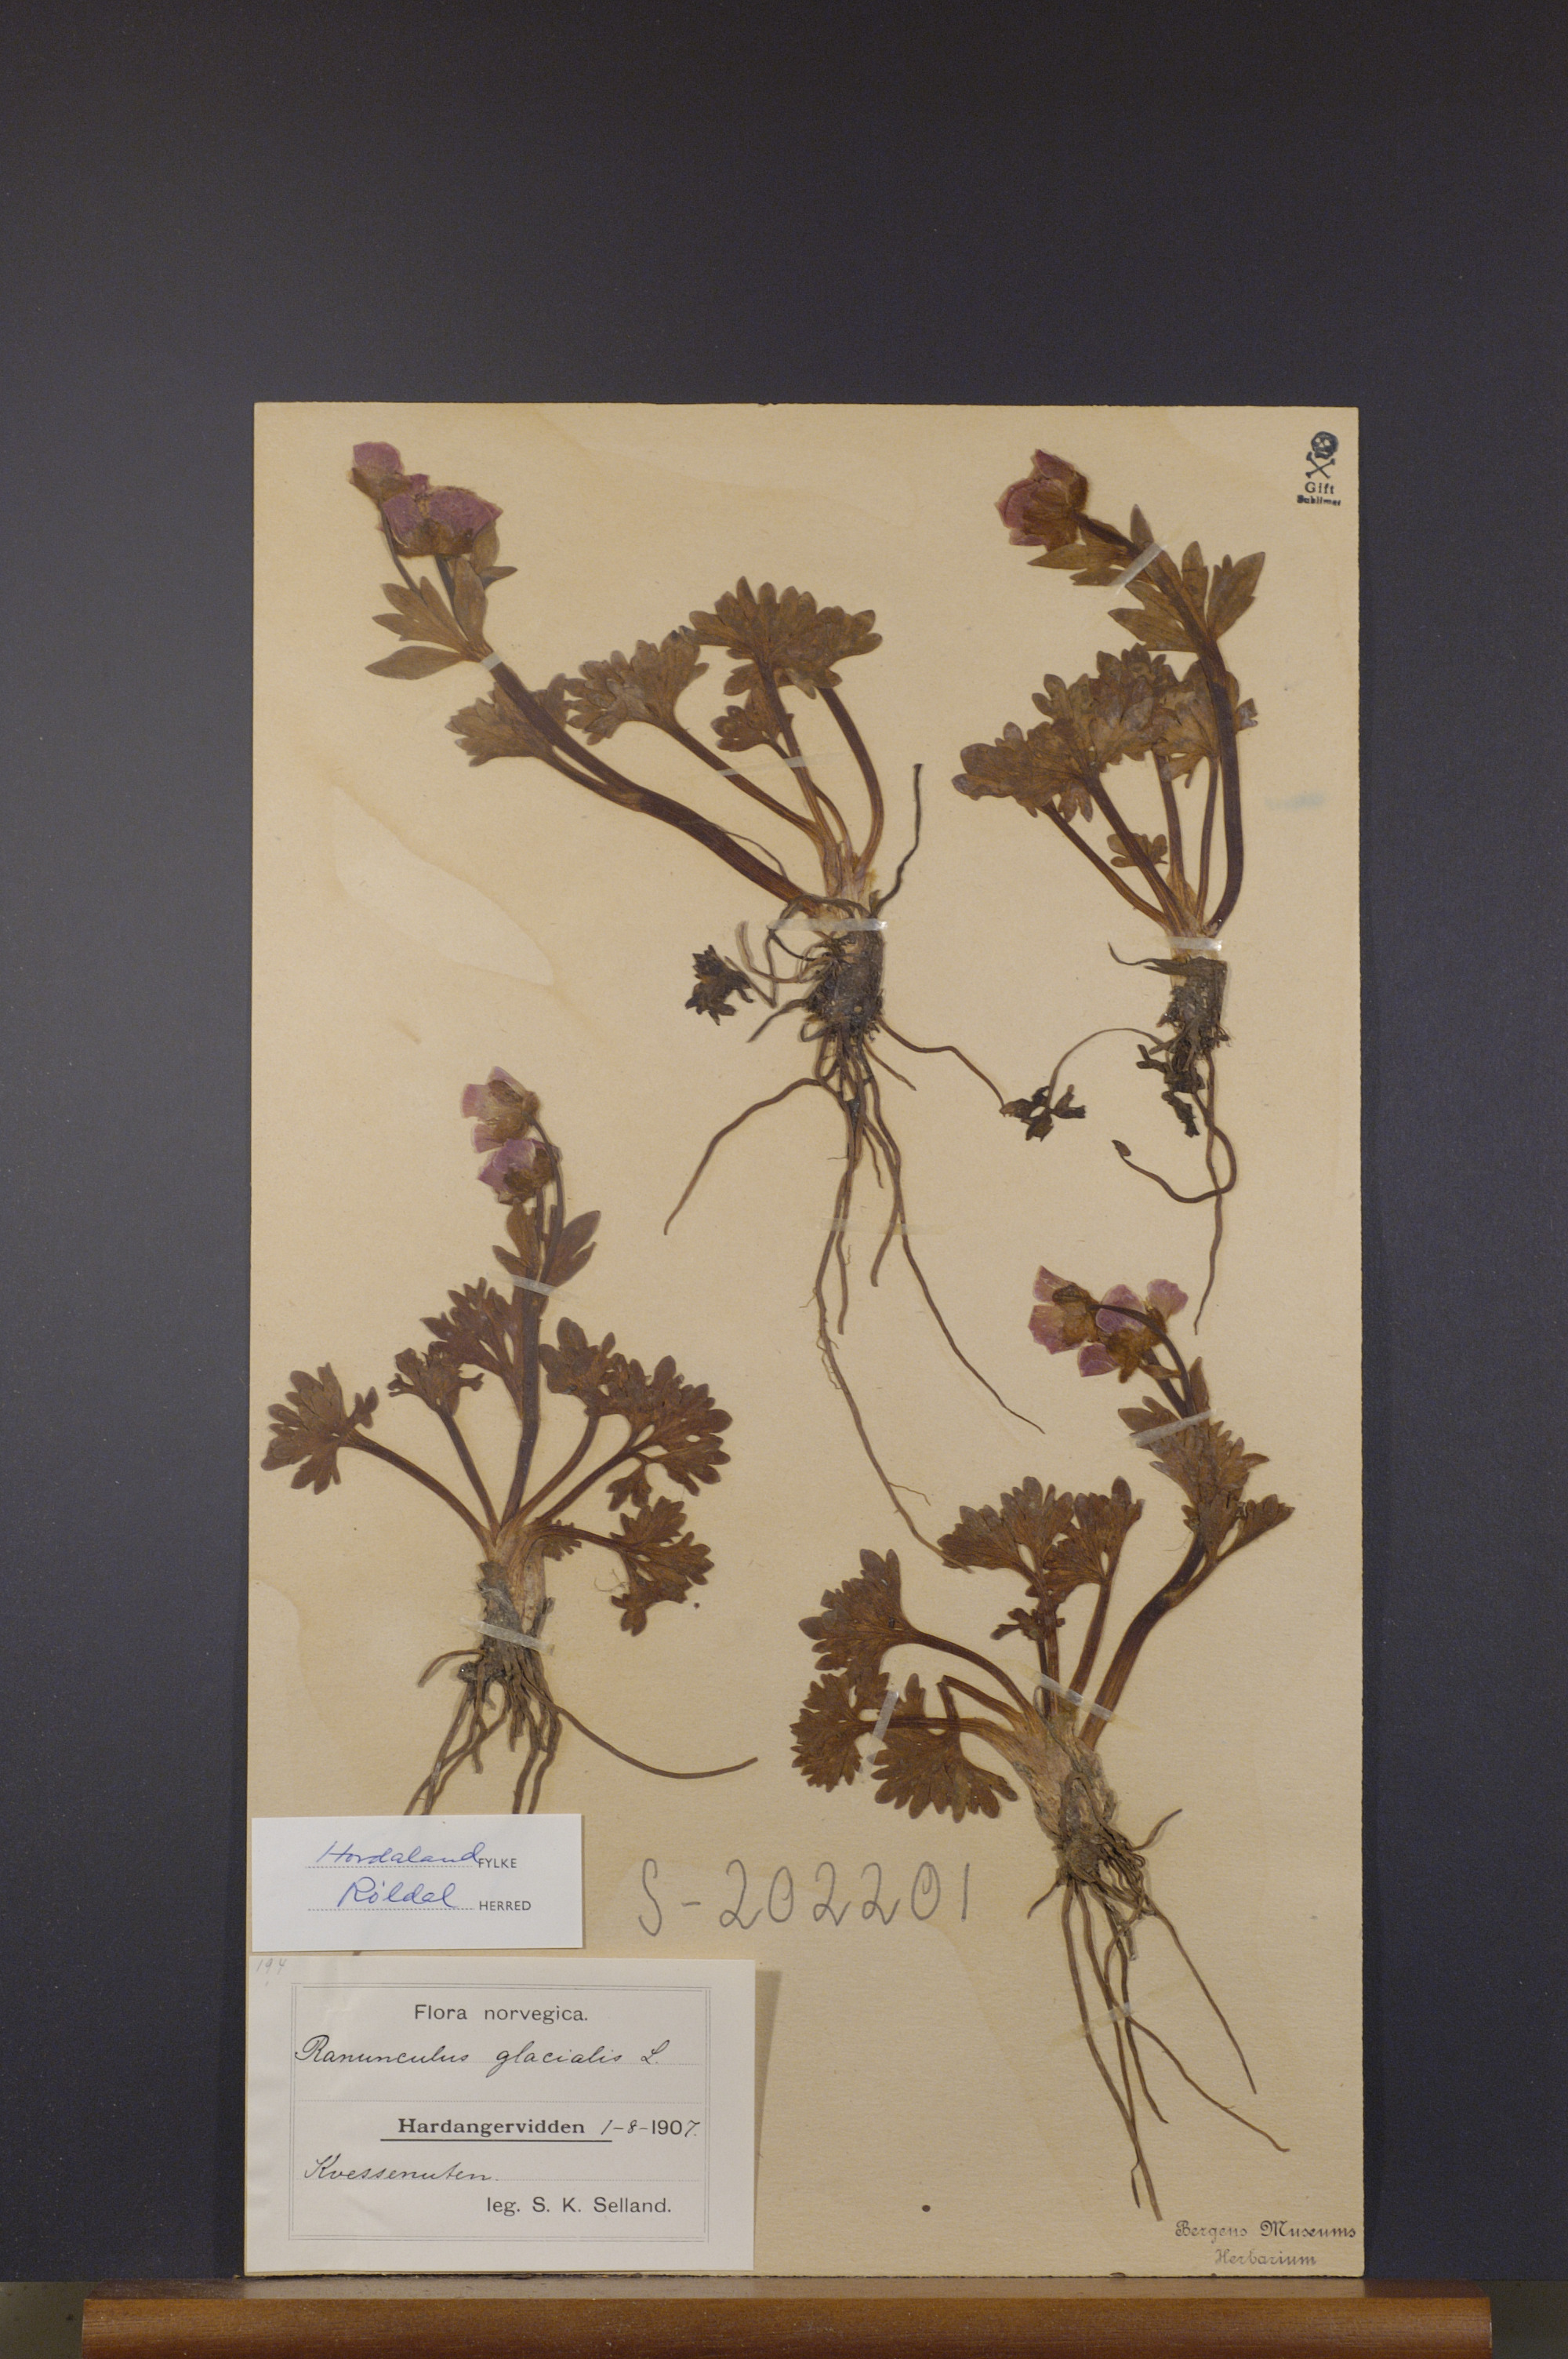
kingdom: Plantae
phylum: Tracheophyta
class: Magnoliopsida
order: Ranunculales
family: Ranunculaceae
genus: Ranunculus
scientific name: Ranunculus glacialis
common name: Glacier buttercup
